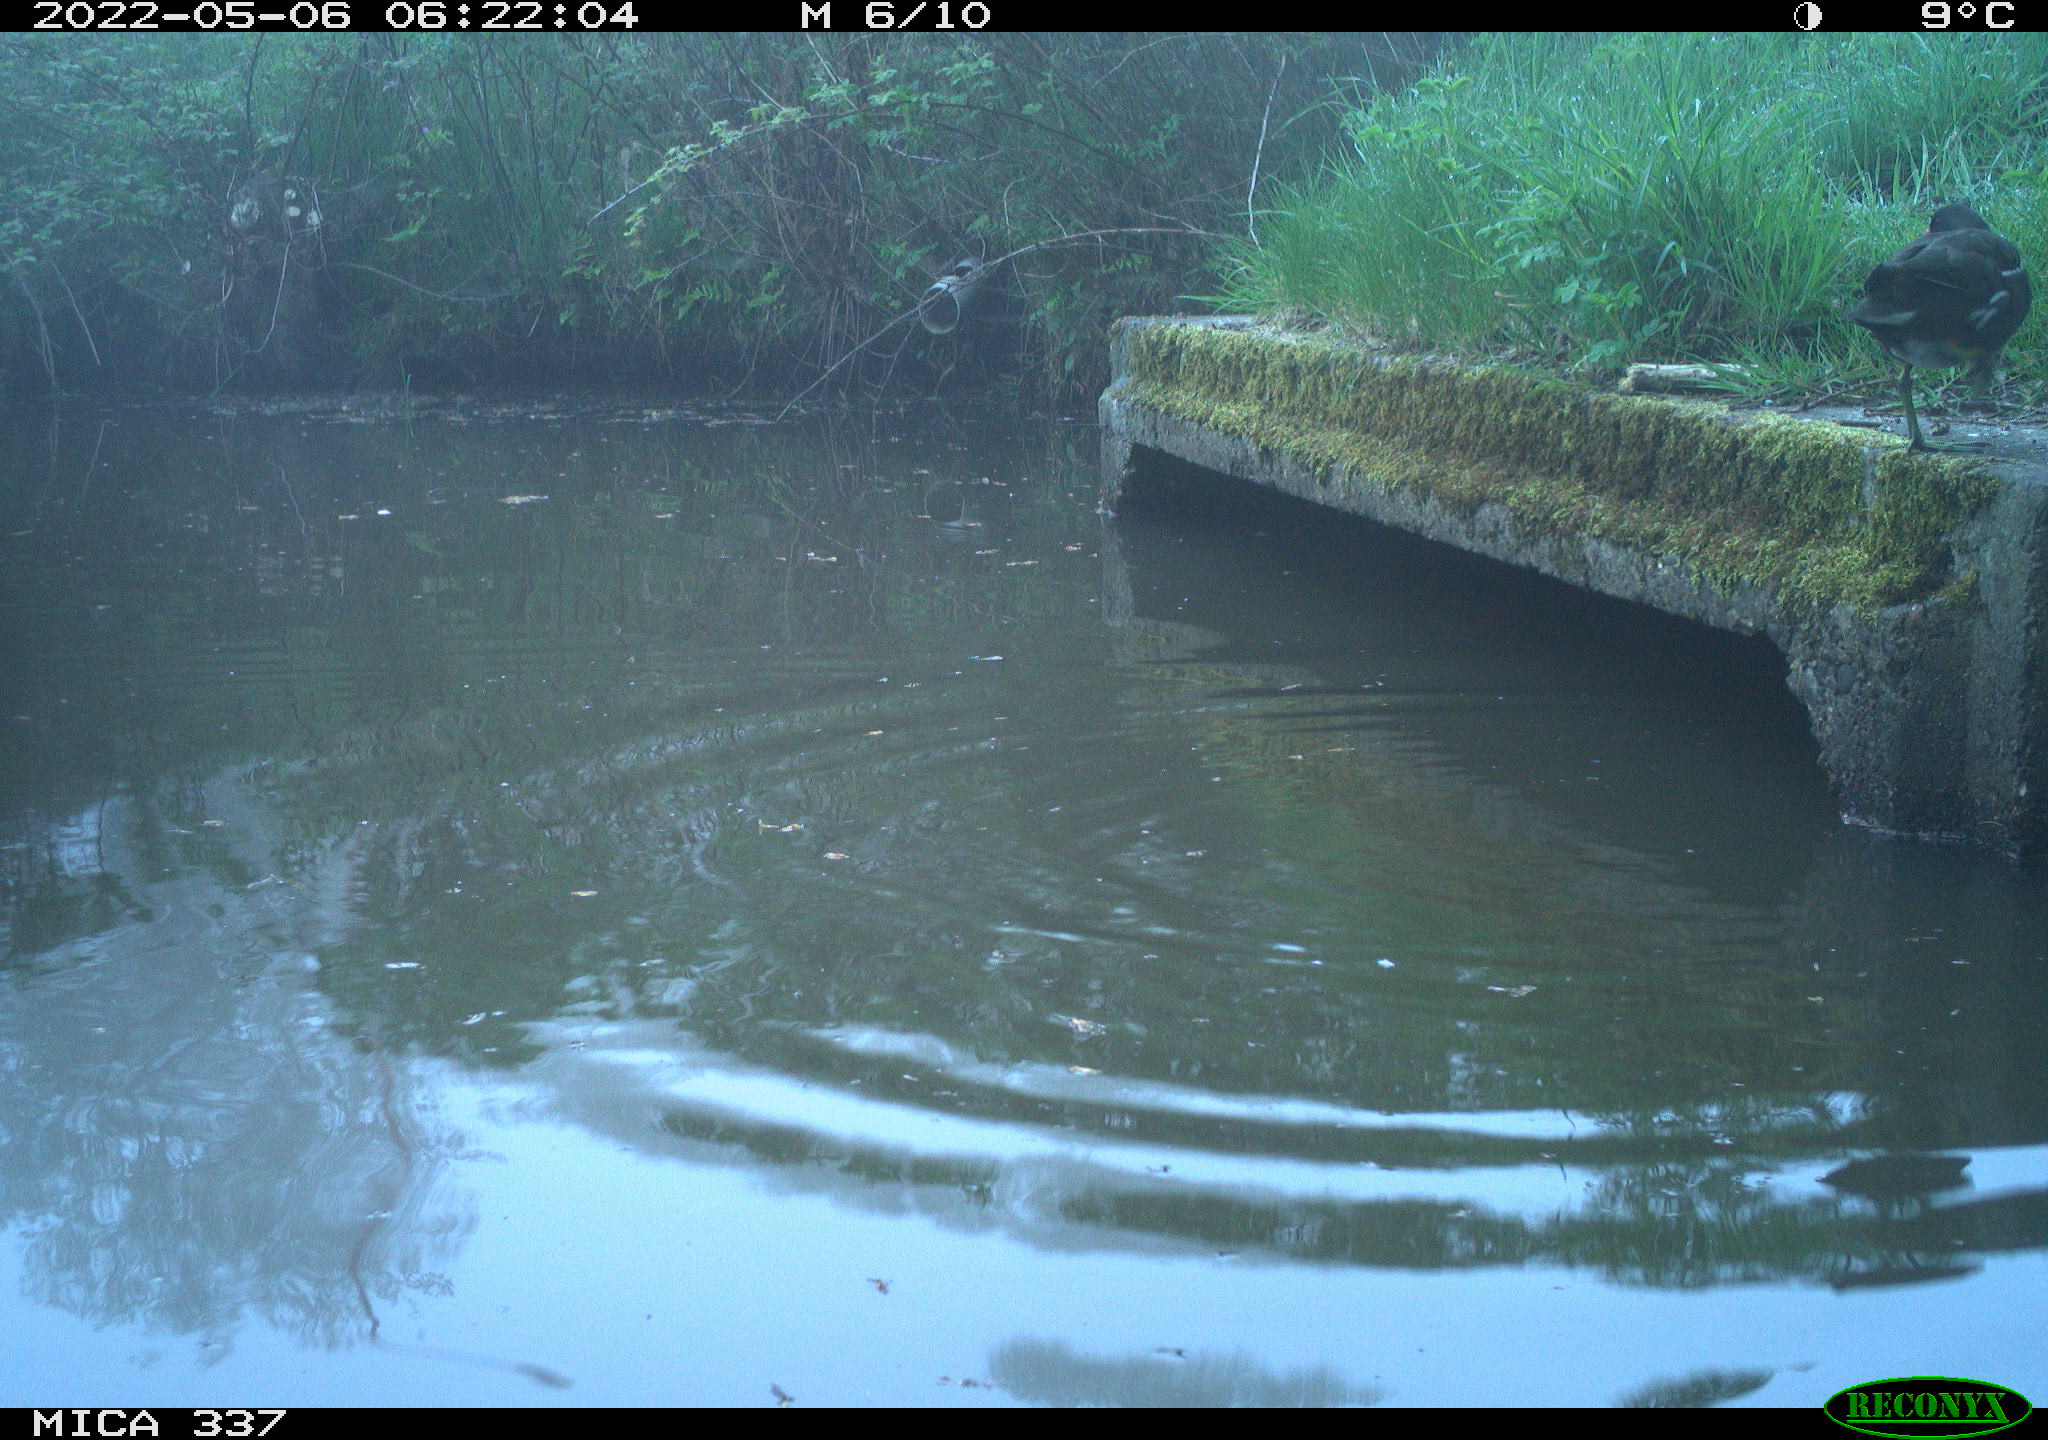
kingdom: Animalia
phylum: Chordata
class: Aves
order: Gruiformes
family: Rallidae
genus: Gallinula
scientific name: Gallinula chloropus
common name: Common moorhen
